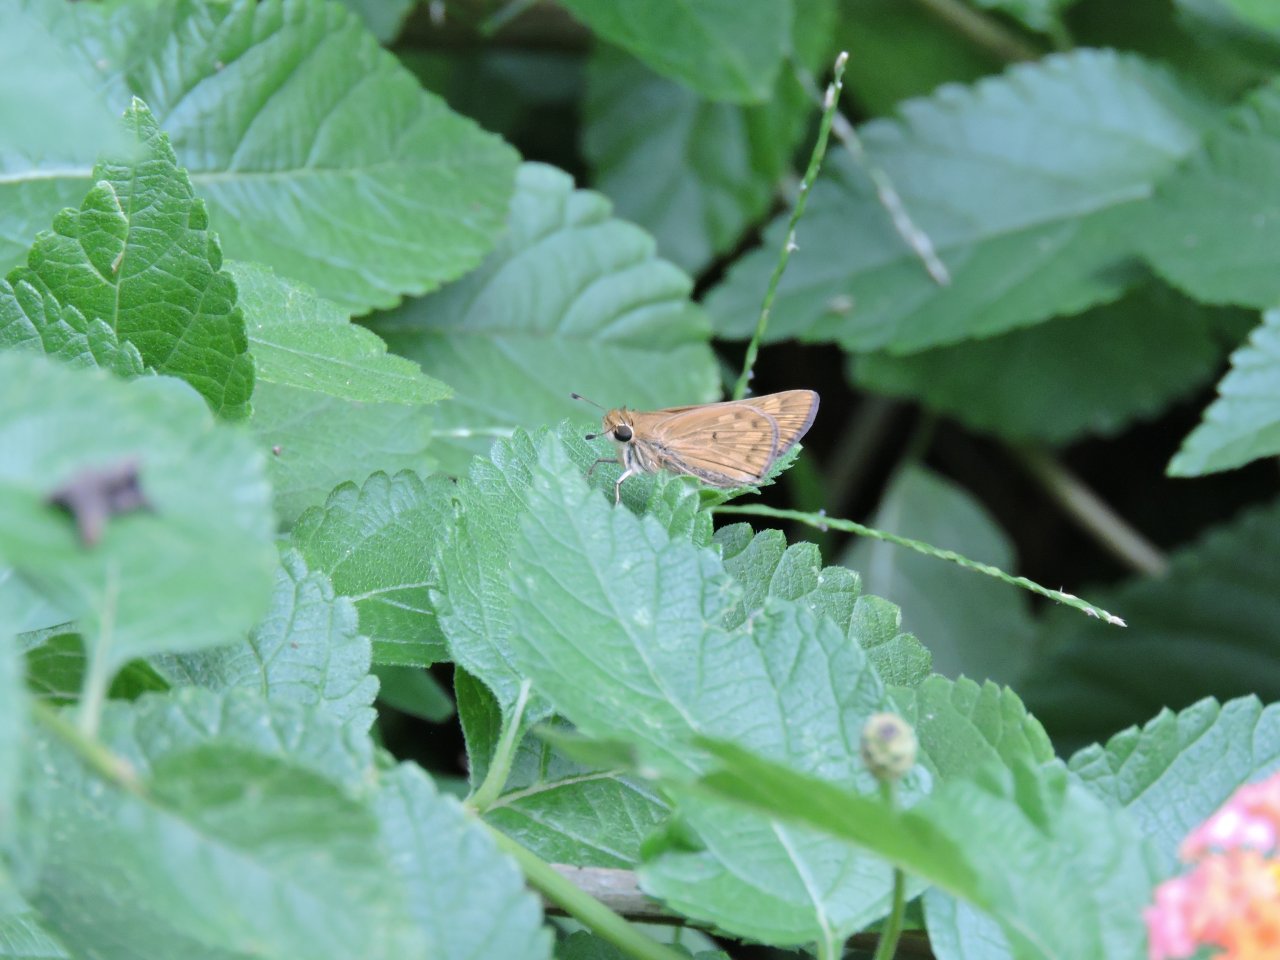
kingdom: Animalia
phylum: Arthropoda
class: Insecta
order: Lepidoptera
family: Hesperiidae
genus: Hylephila
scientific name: Hylephila phyleus
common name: Fiery Skipper
